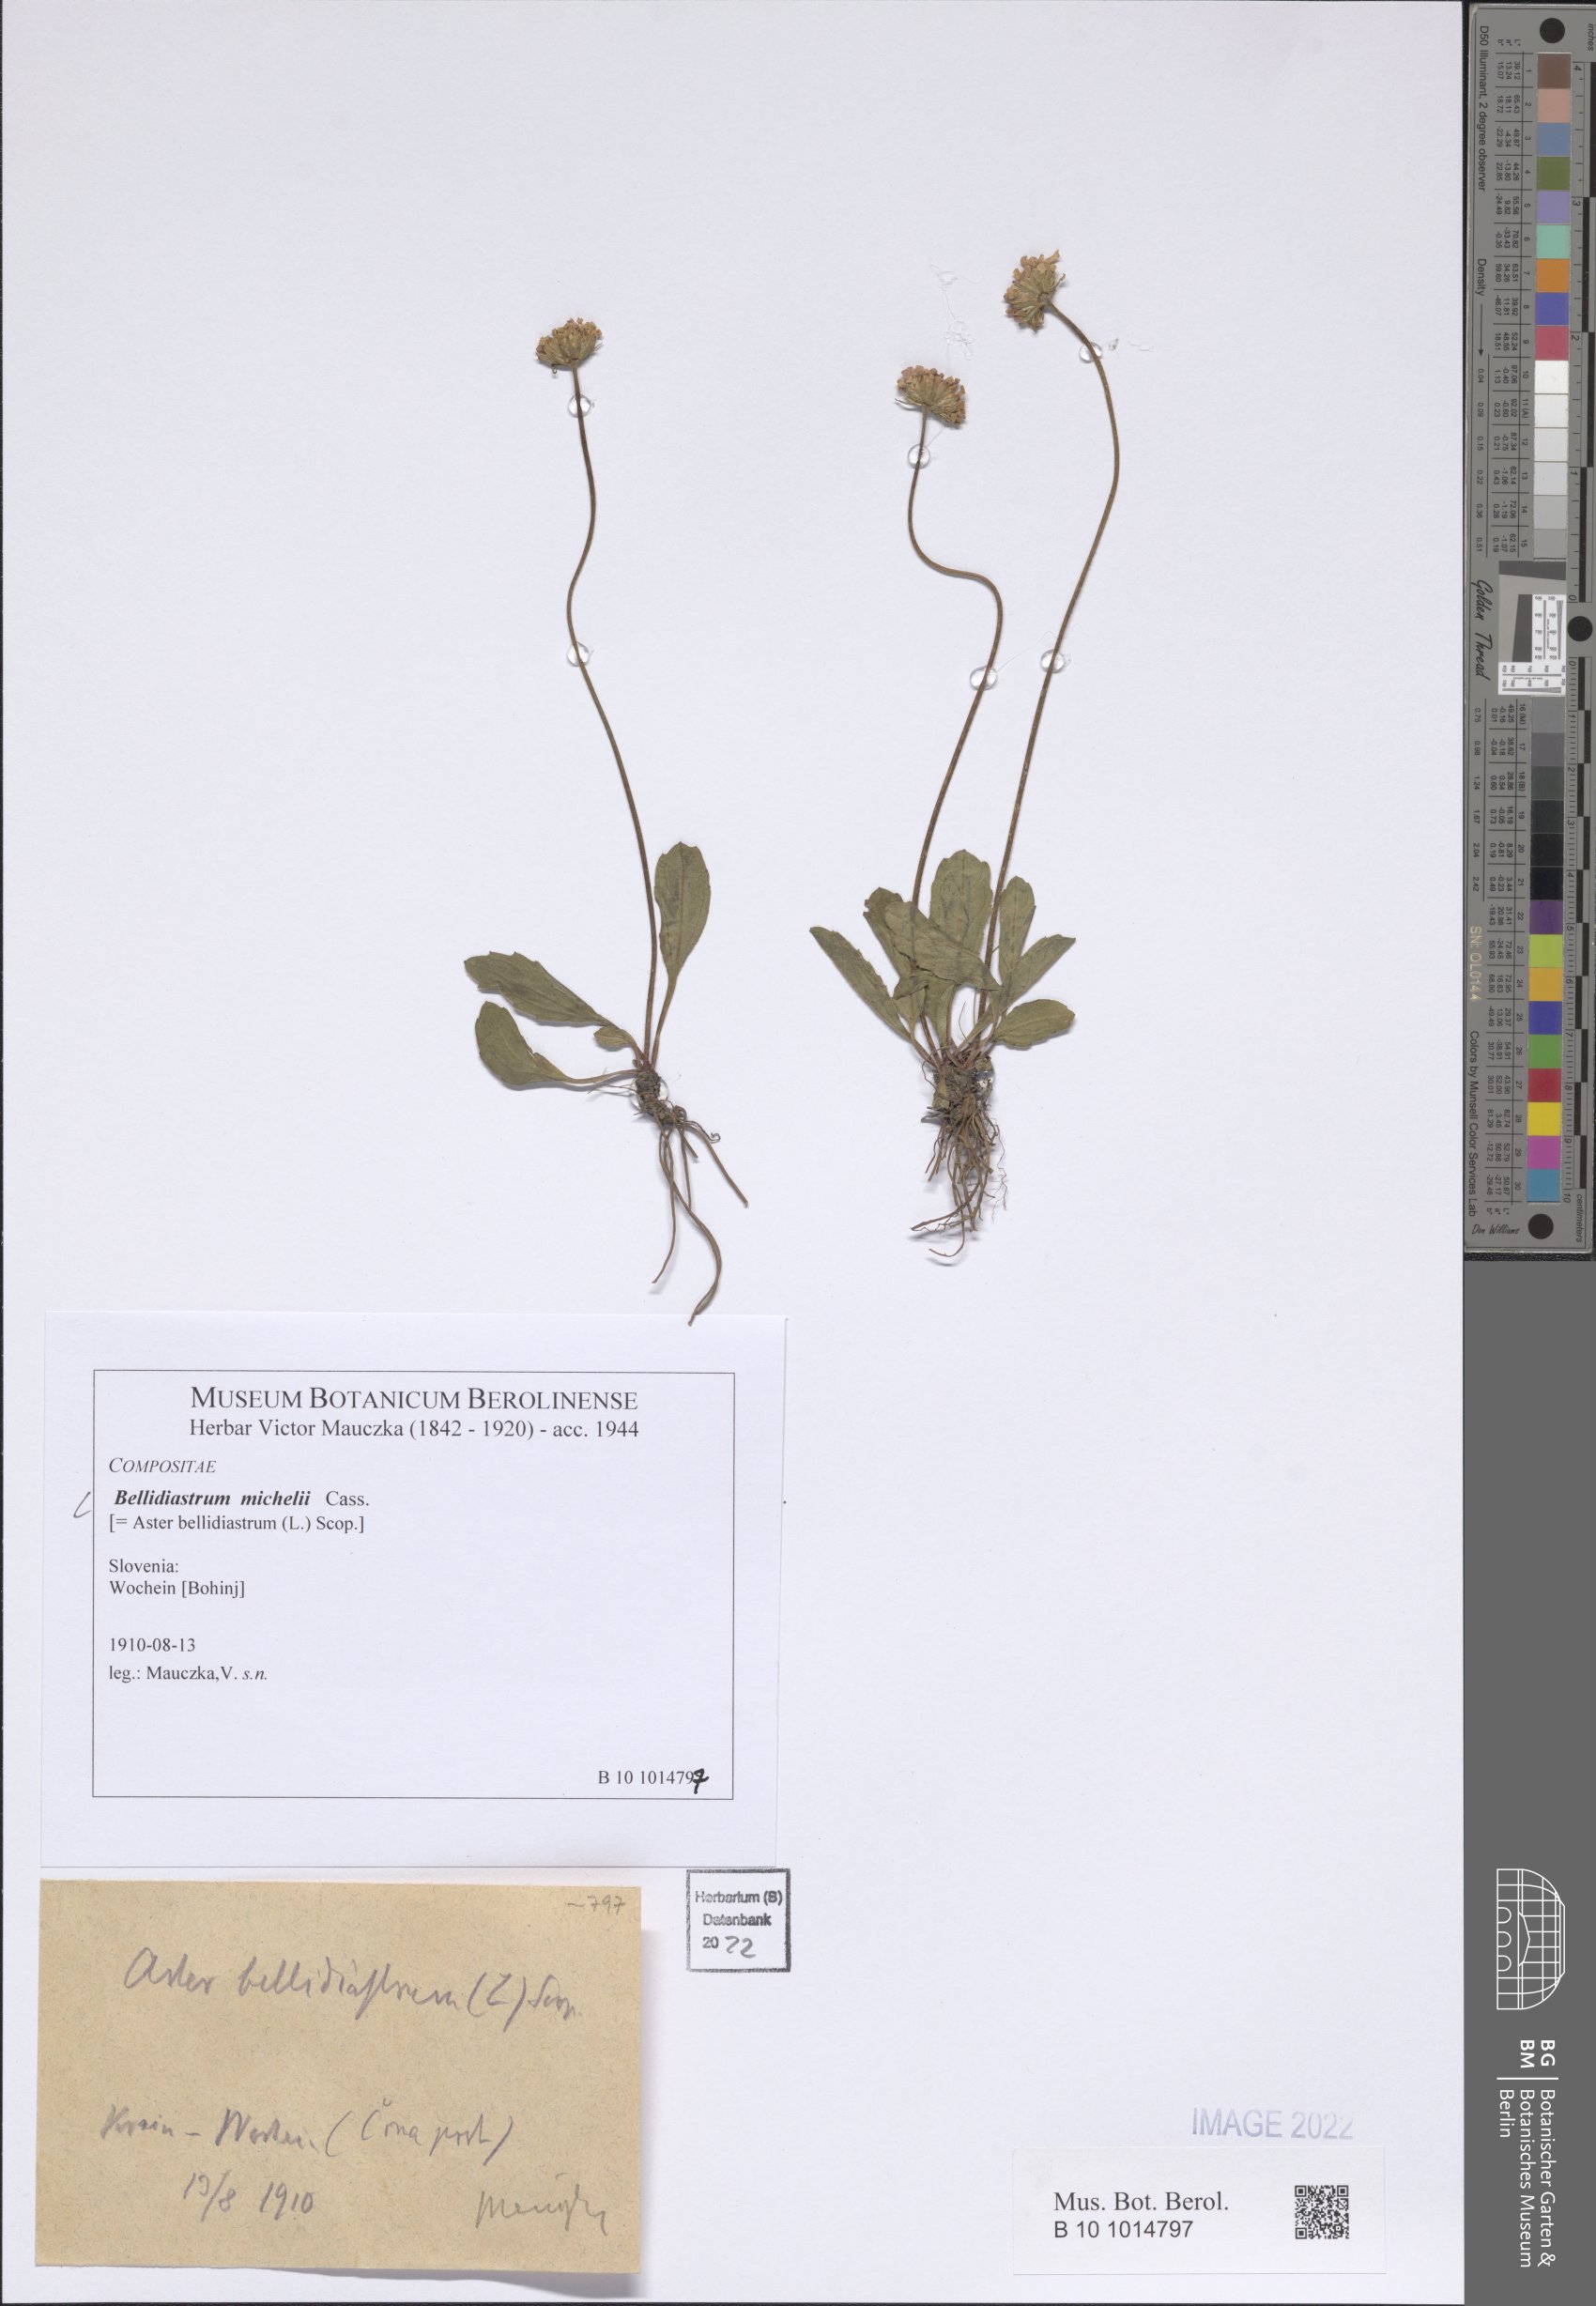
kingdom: Plantae
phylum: Tracheophyta
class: Magnoliopsida
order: Asterales
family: Asteraceae
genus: Bellidiastrum
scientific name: Bellidiastrum michelii
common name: Daisy-star aster
